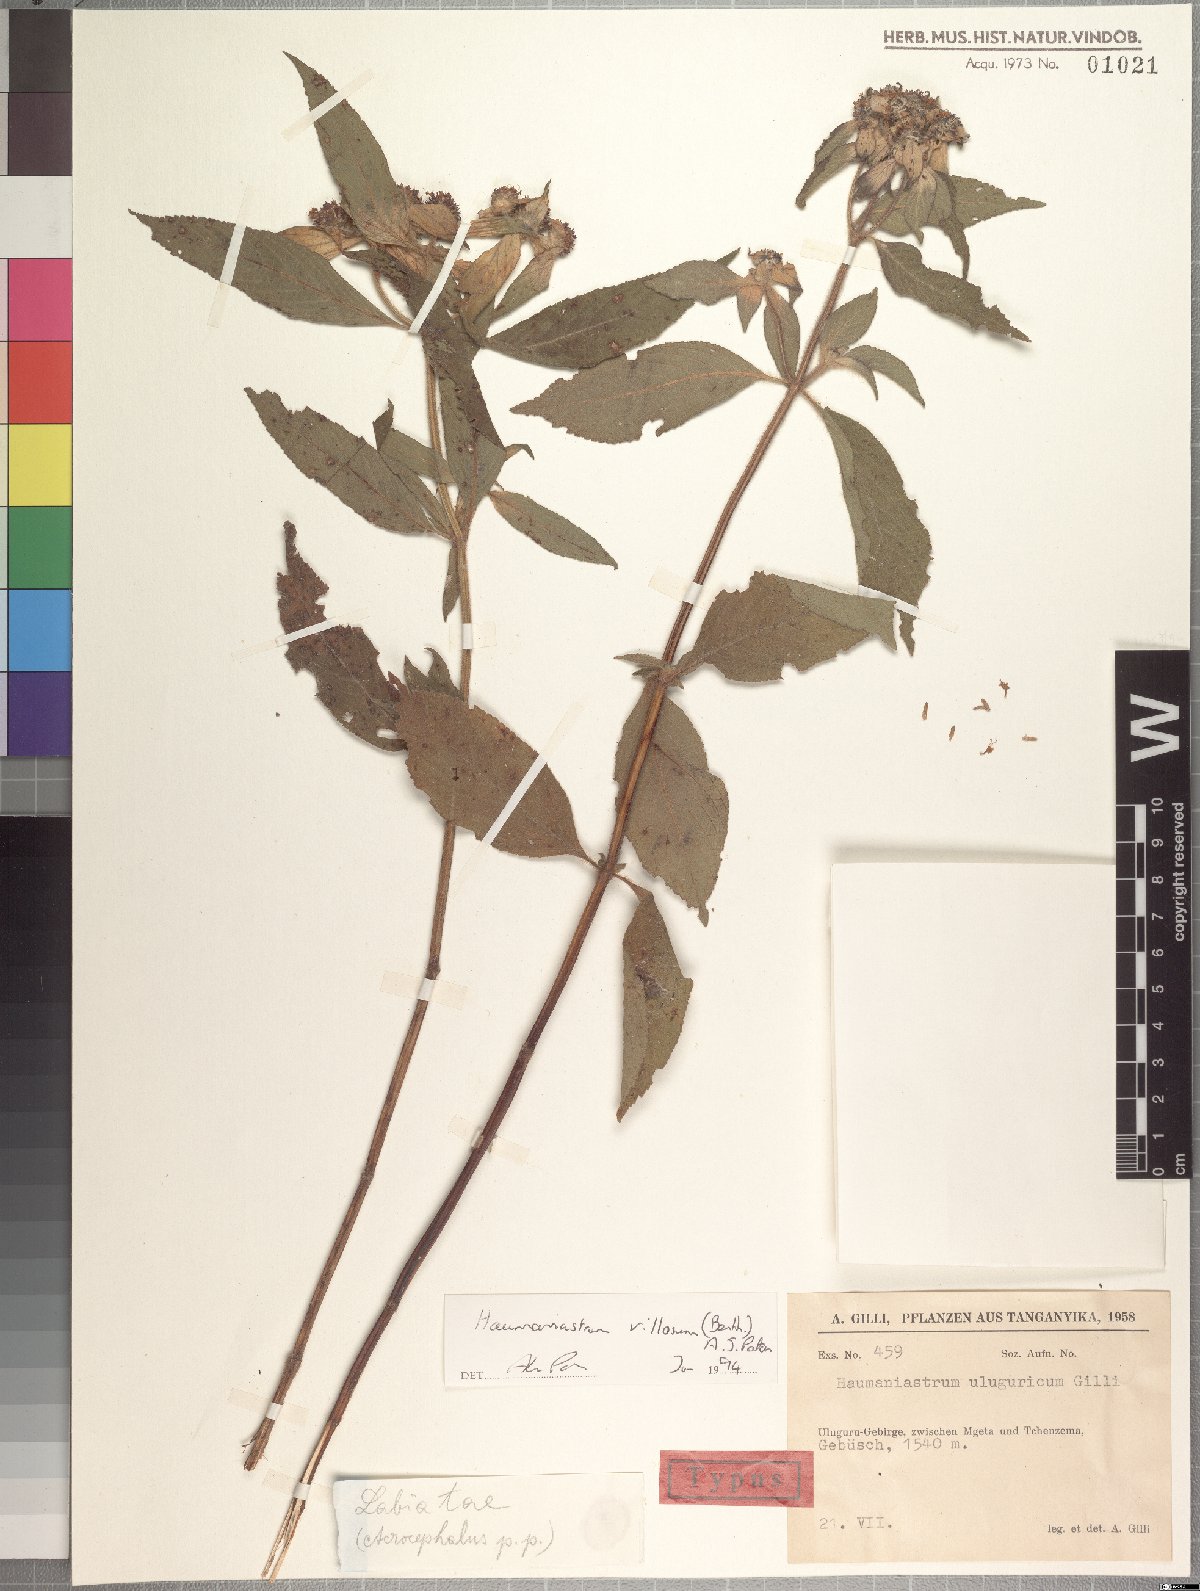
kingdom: Plantae
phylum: Tracheophyta
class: Magnoliopsida
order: Lamiales
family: Lamiaceae
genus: Haumaniastrum
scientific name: Haumaniastrum villosum
